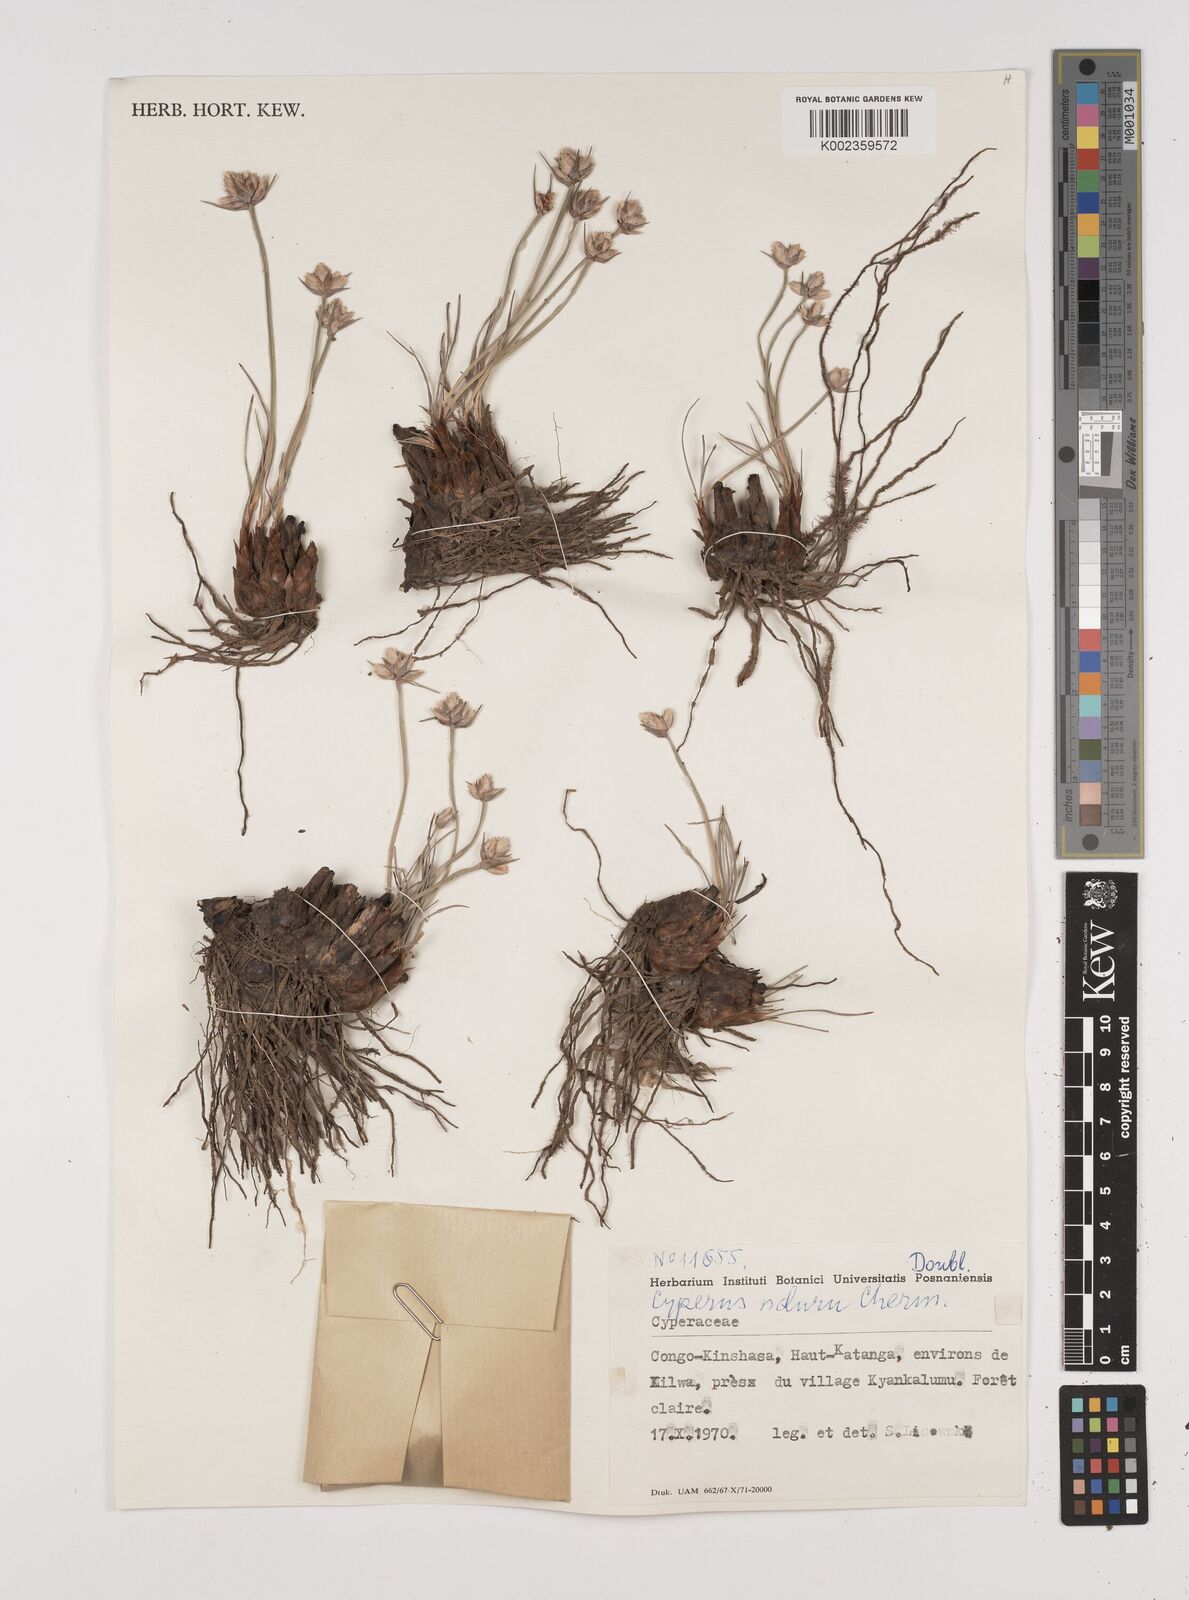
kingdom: Plantae
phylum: Tracheophyta
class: Liliopsida
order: Poales
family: Cyperaceae
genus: Cyperus
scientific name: Cyperus nduru
